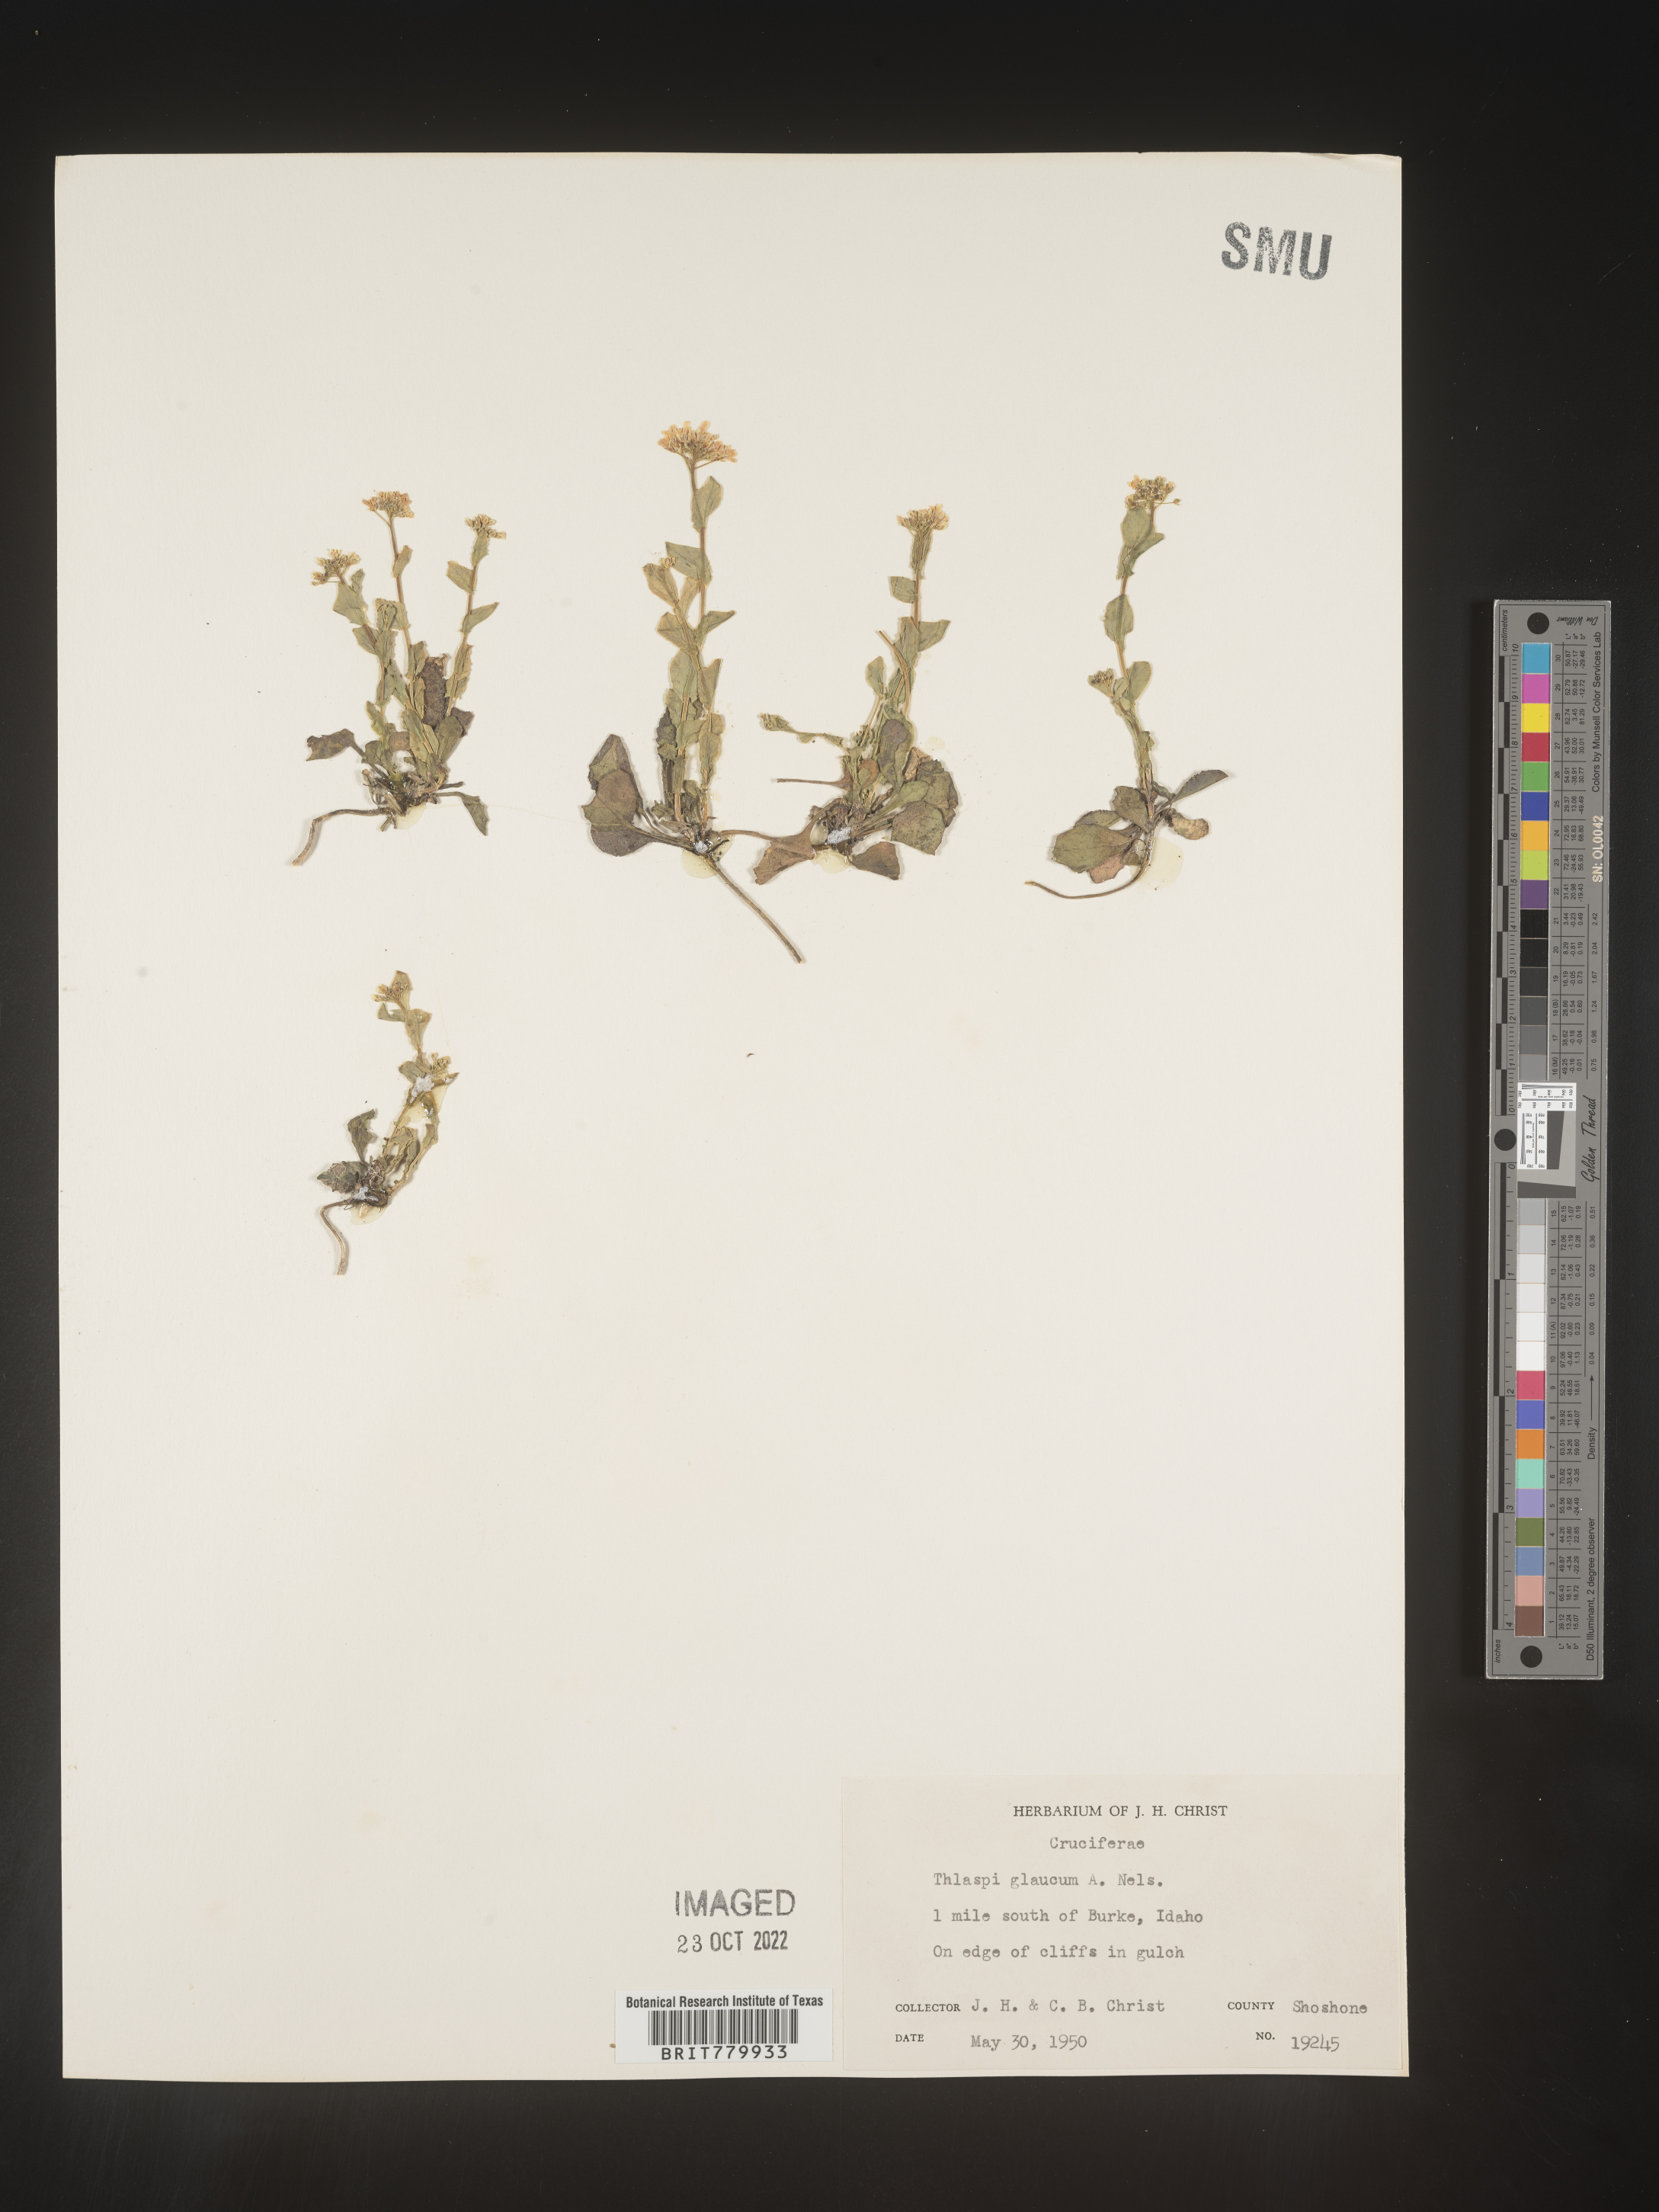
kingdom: Plantae
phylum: Tracheophyta
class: Magnoliopsida
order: Brassicales
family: Brassicaceae
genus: Thlaspi
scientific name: Thlaspi
